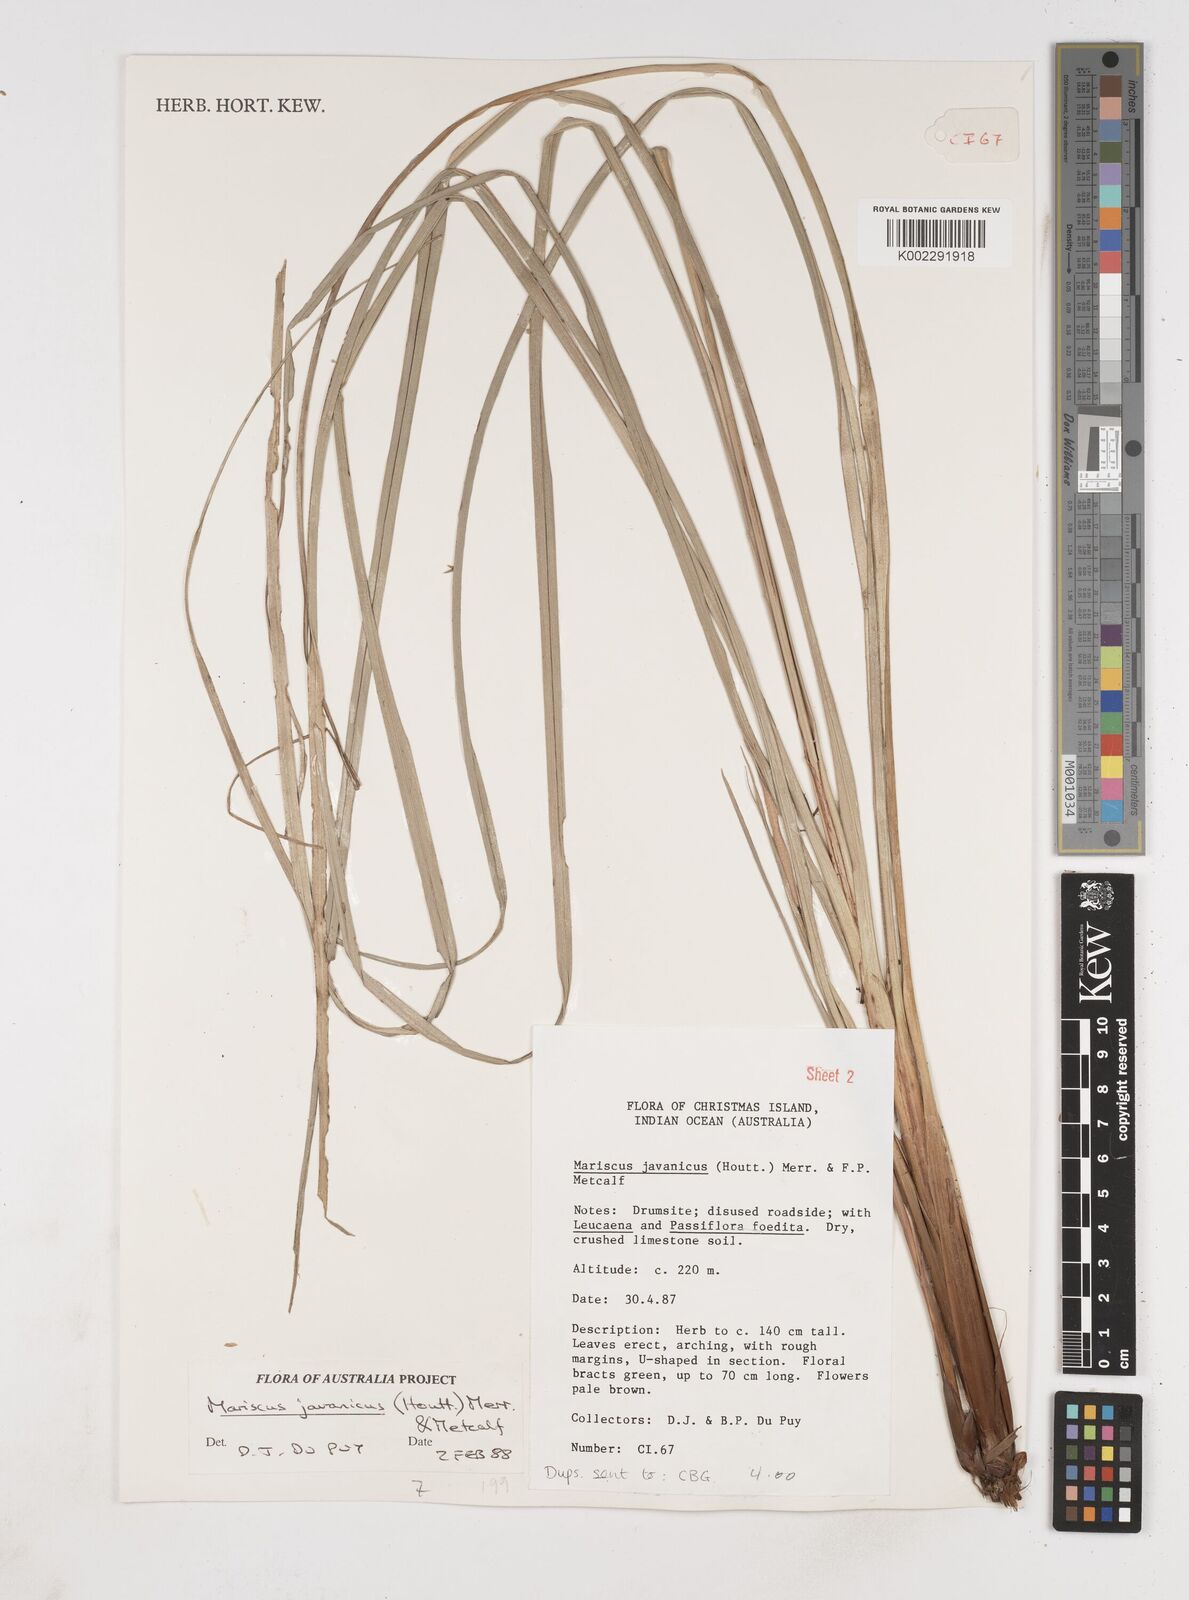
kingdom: Plantae
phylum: Tracheophyta
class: Liliopsida
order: Poales
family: Cyperaceae
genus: Cyperus
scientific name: Cyperus javanicus
